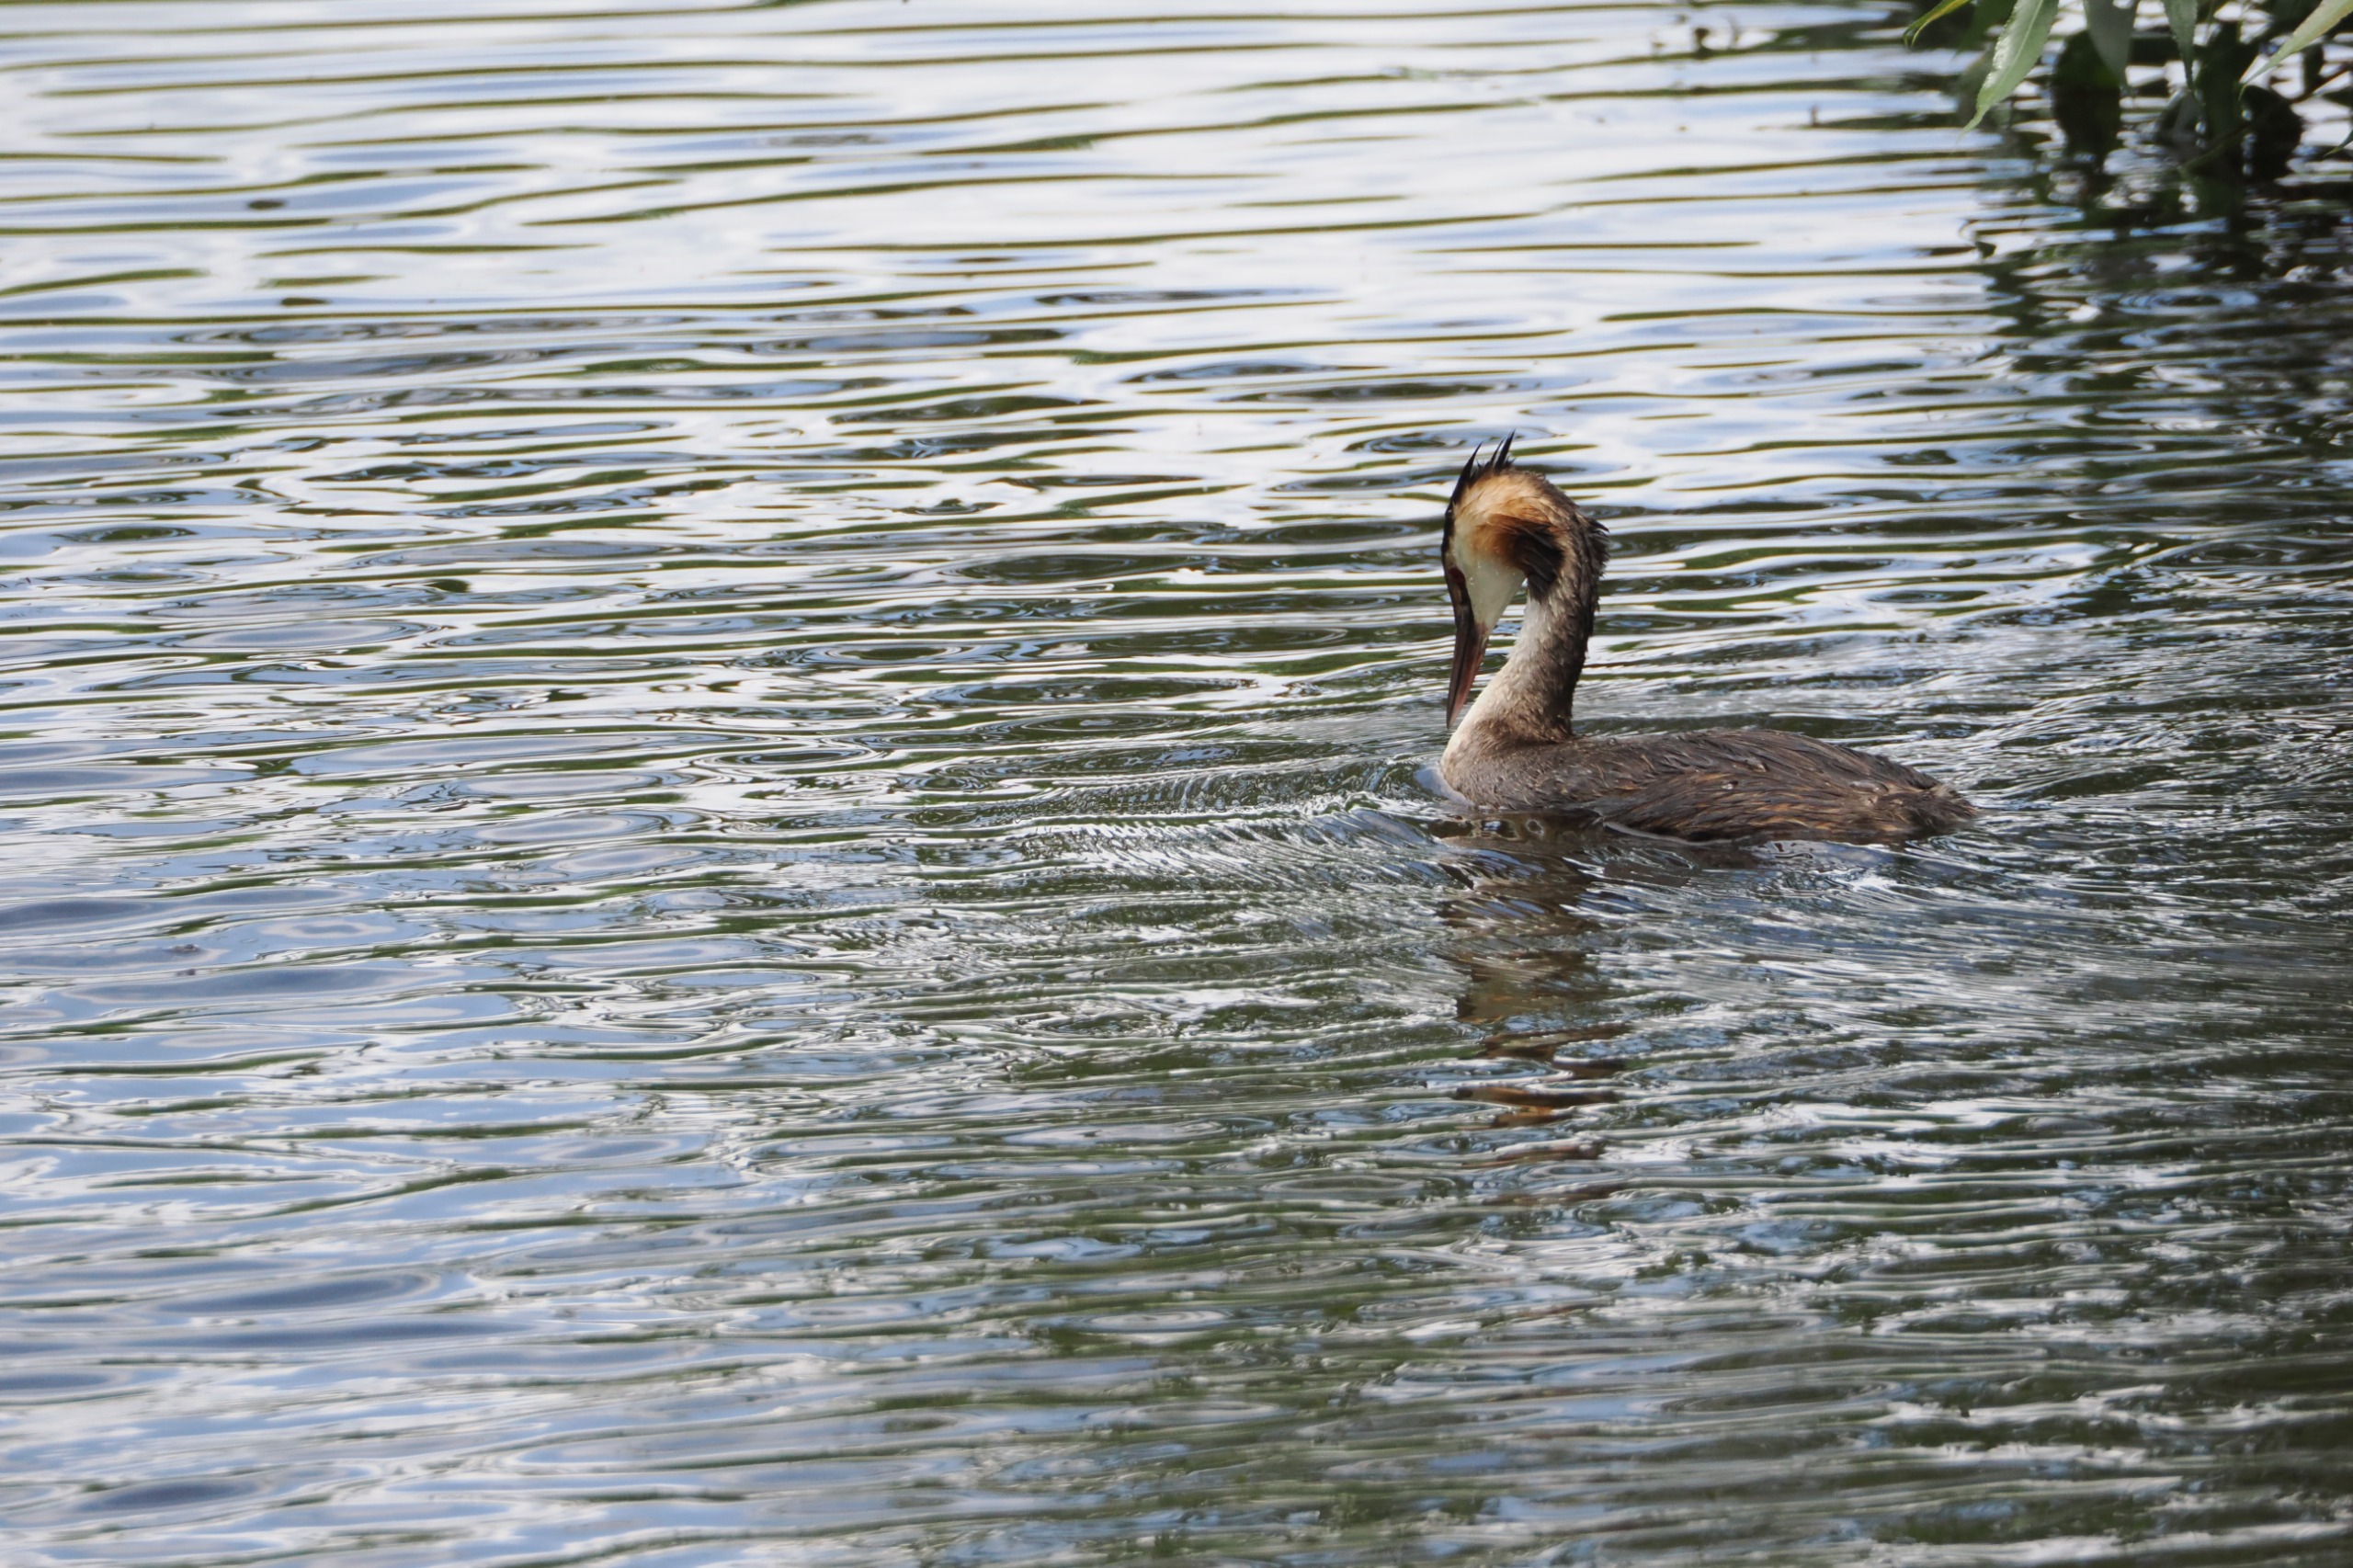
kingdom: Animalia
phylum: Chordata
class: Aves
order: Podicipediformes
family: Podicipedidae
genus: Podiceps
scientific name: Podiceps cristatus
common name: Toppet lappedykker
